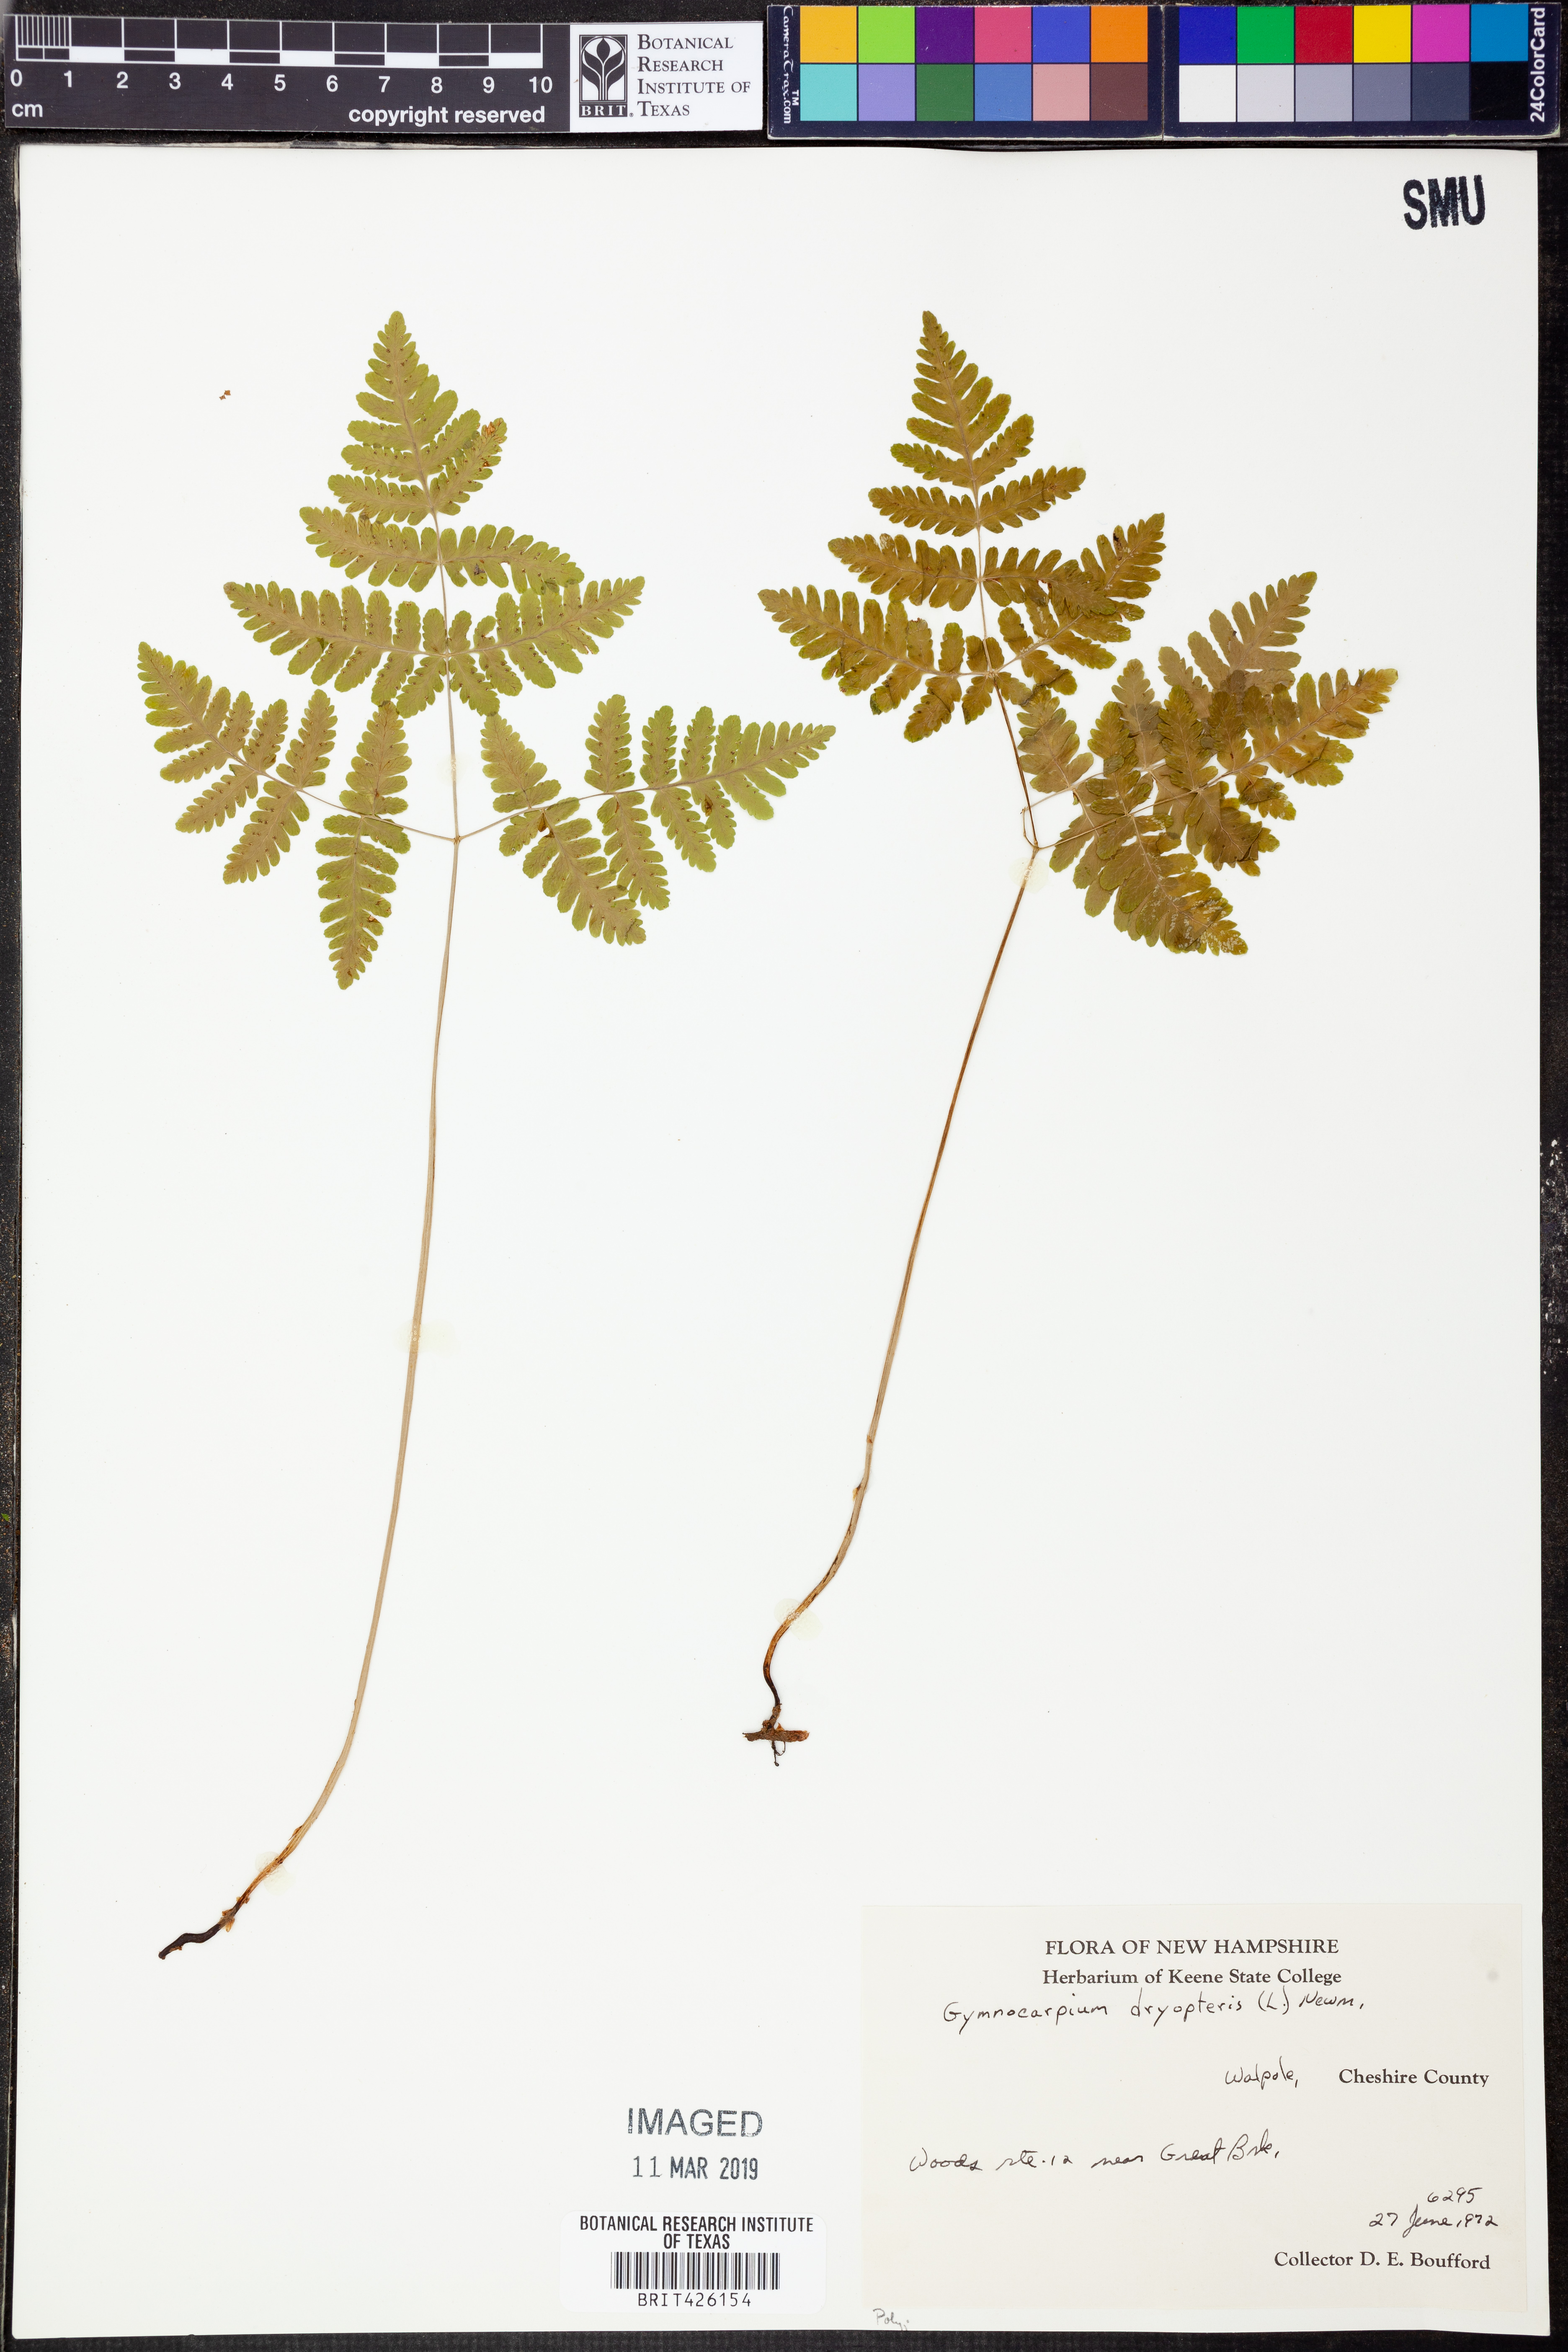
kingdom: Plantae
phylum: Tracheophyta
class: Polypodiopsida
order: Polypodiales
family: Cystopteridaceae
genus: Gymnocarpium
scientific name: Gymnocarpium dryopteris
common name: Oak fern
